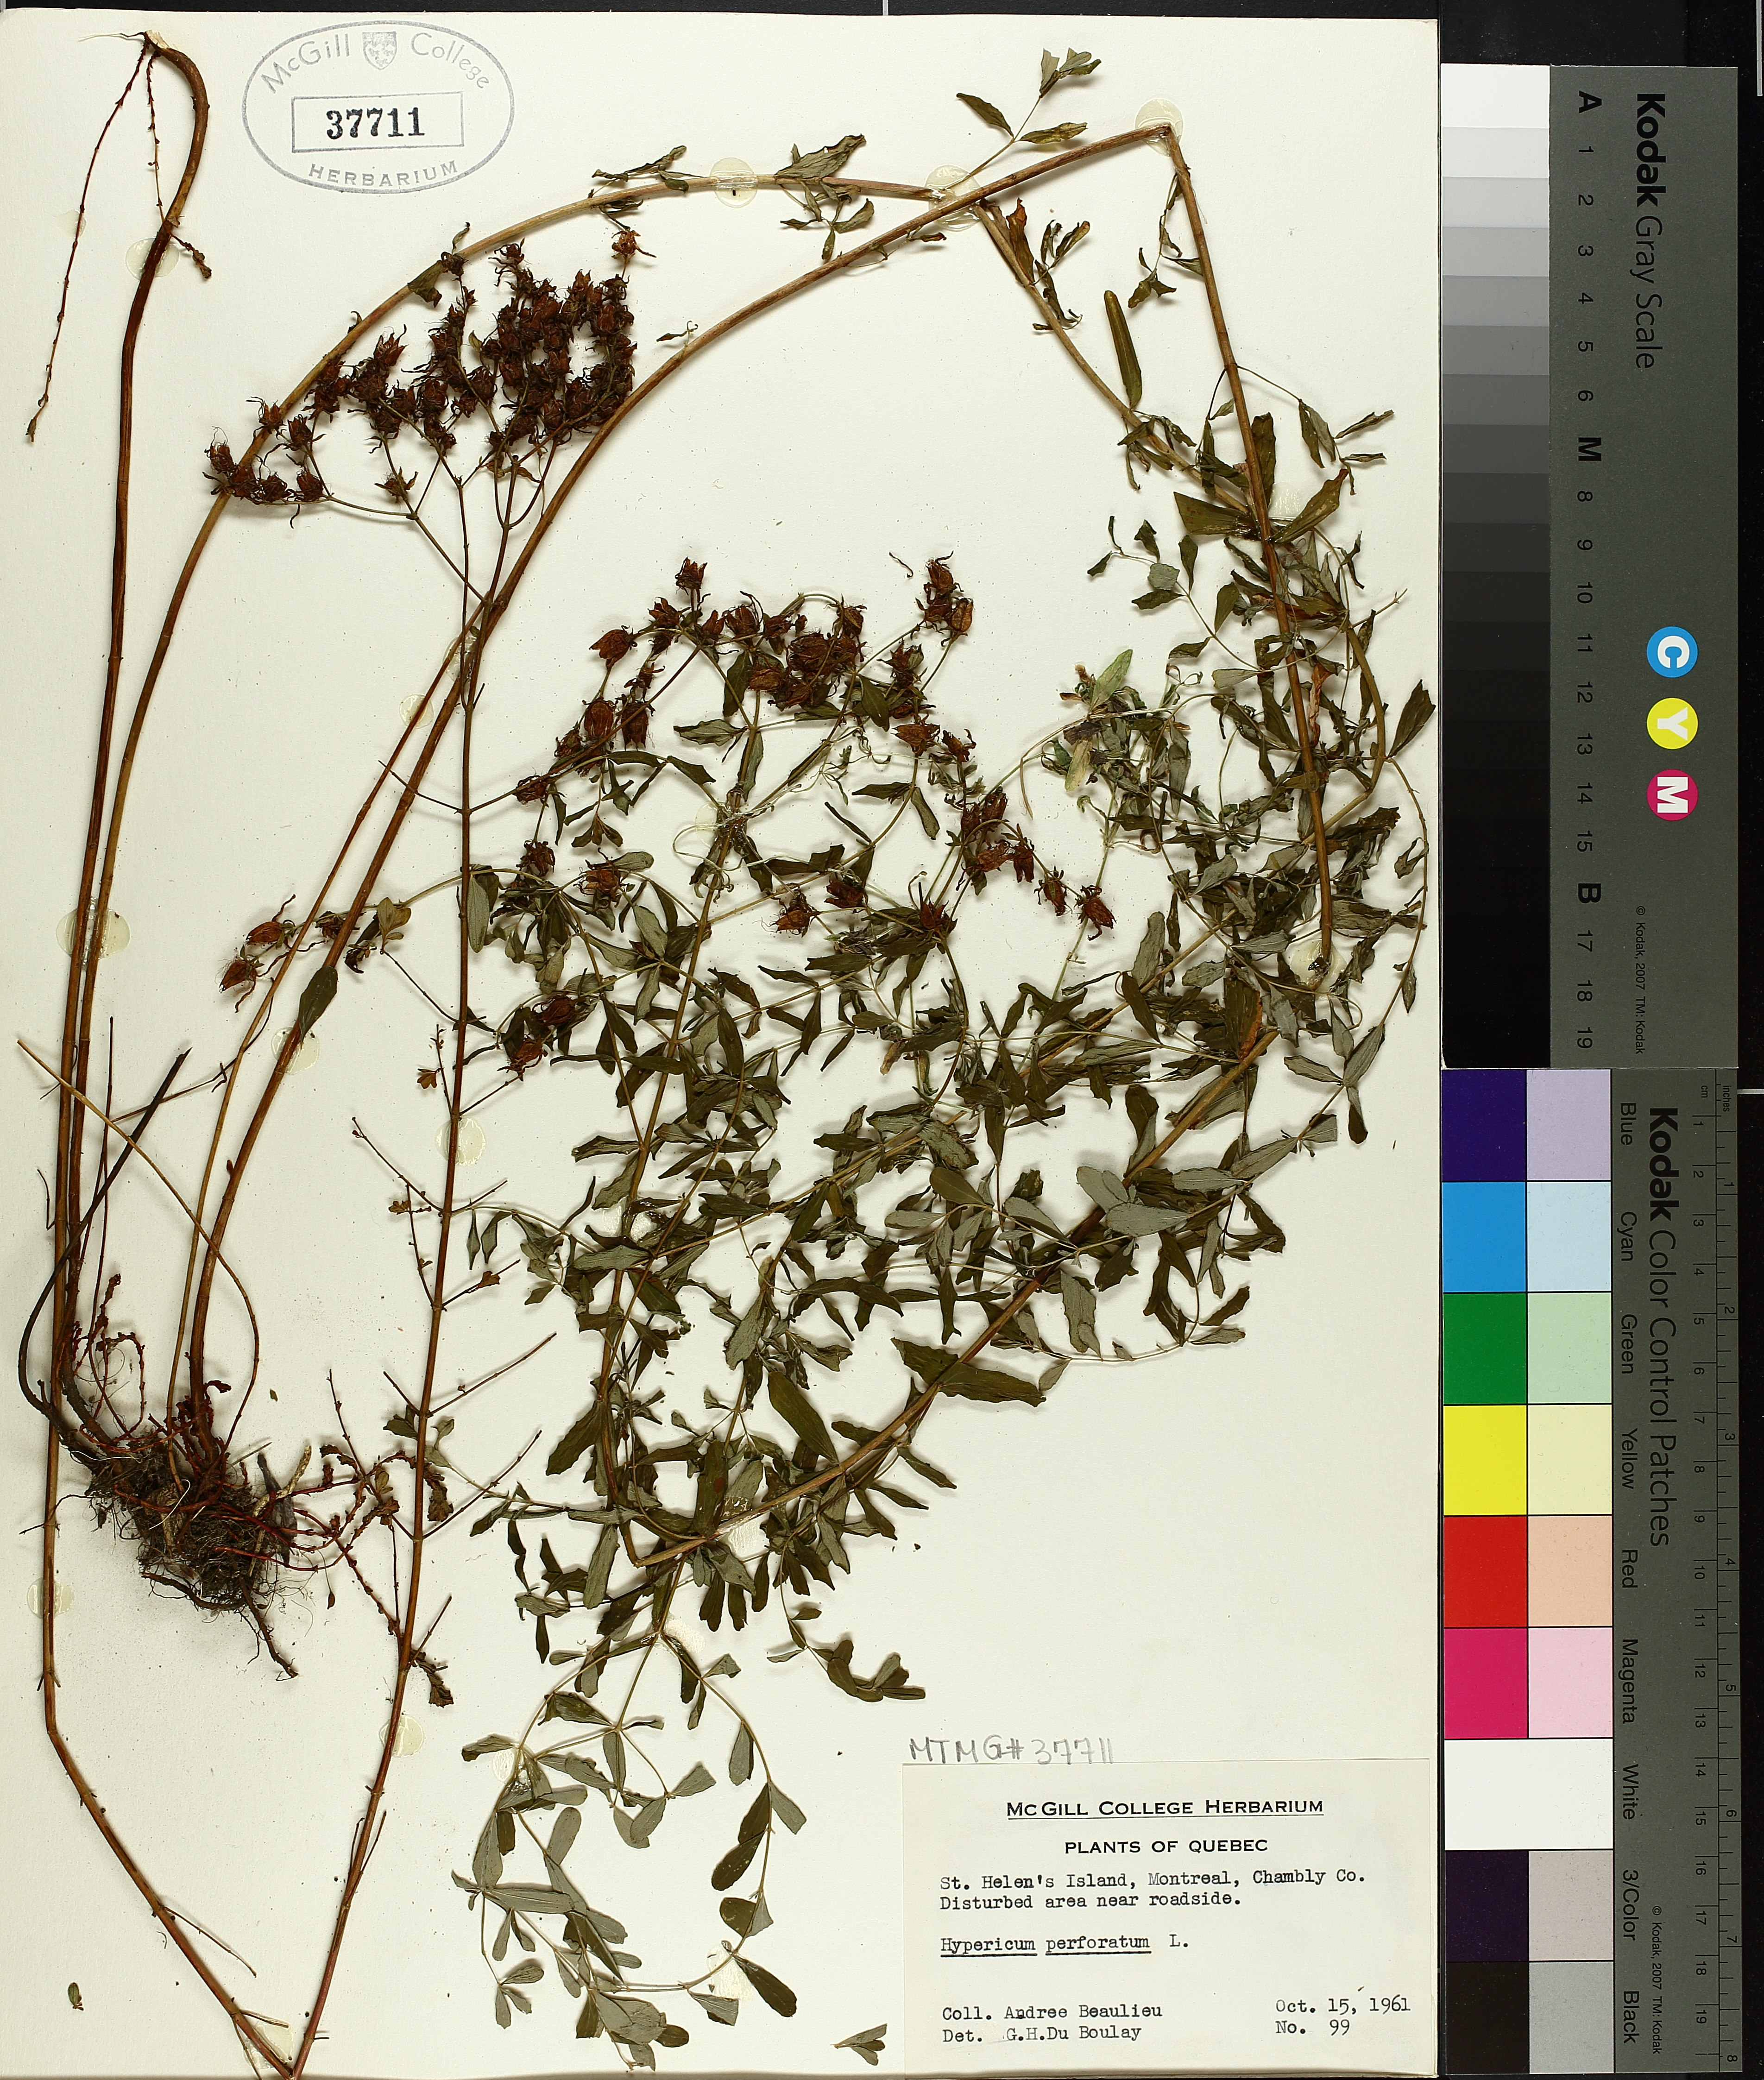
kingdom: Plantae
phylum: Tracheophyta
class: Magnoliopsida
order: Malpighiales
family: Hypericaceae
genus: Hypericum
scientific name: Hypericum perforatum
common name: Common st. johnswort
